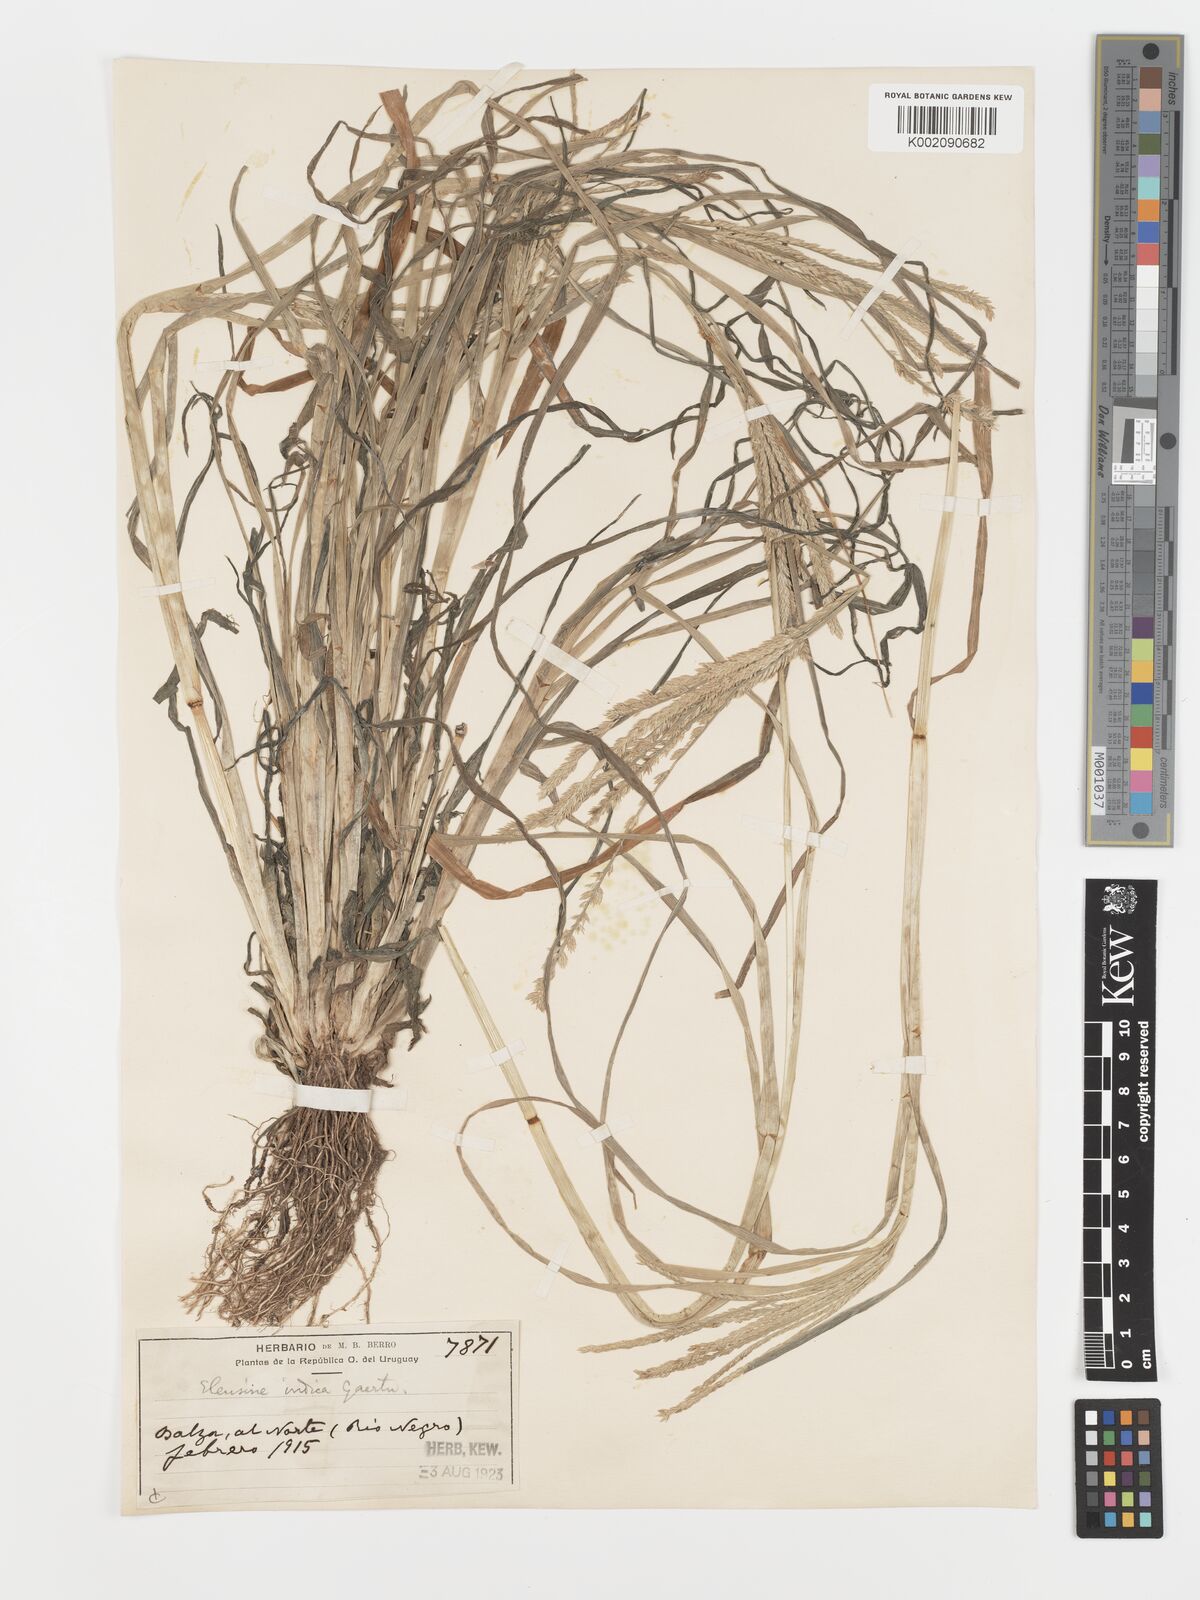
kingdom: Plantae
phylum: Tracheophyta
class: Liliopsida
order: Poales
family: Poaceae
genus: Eleusine
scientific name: Eleusine indica
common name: Yard-grass
